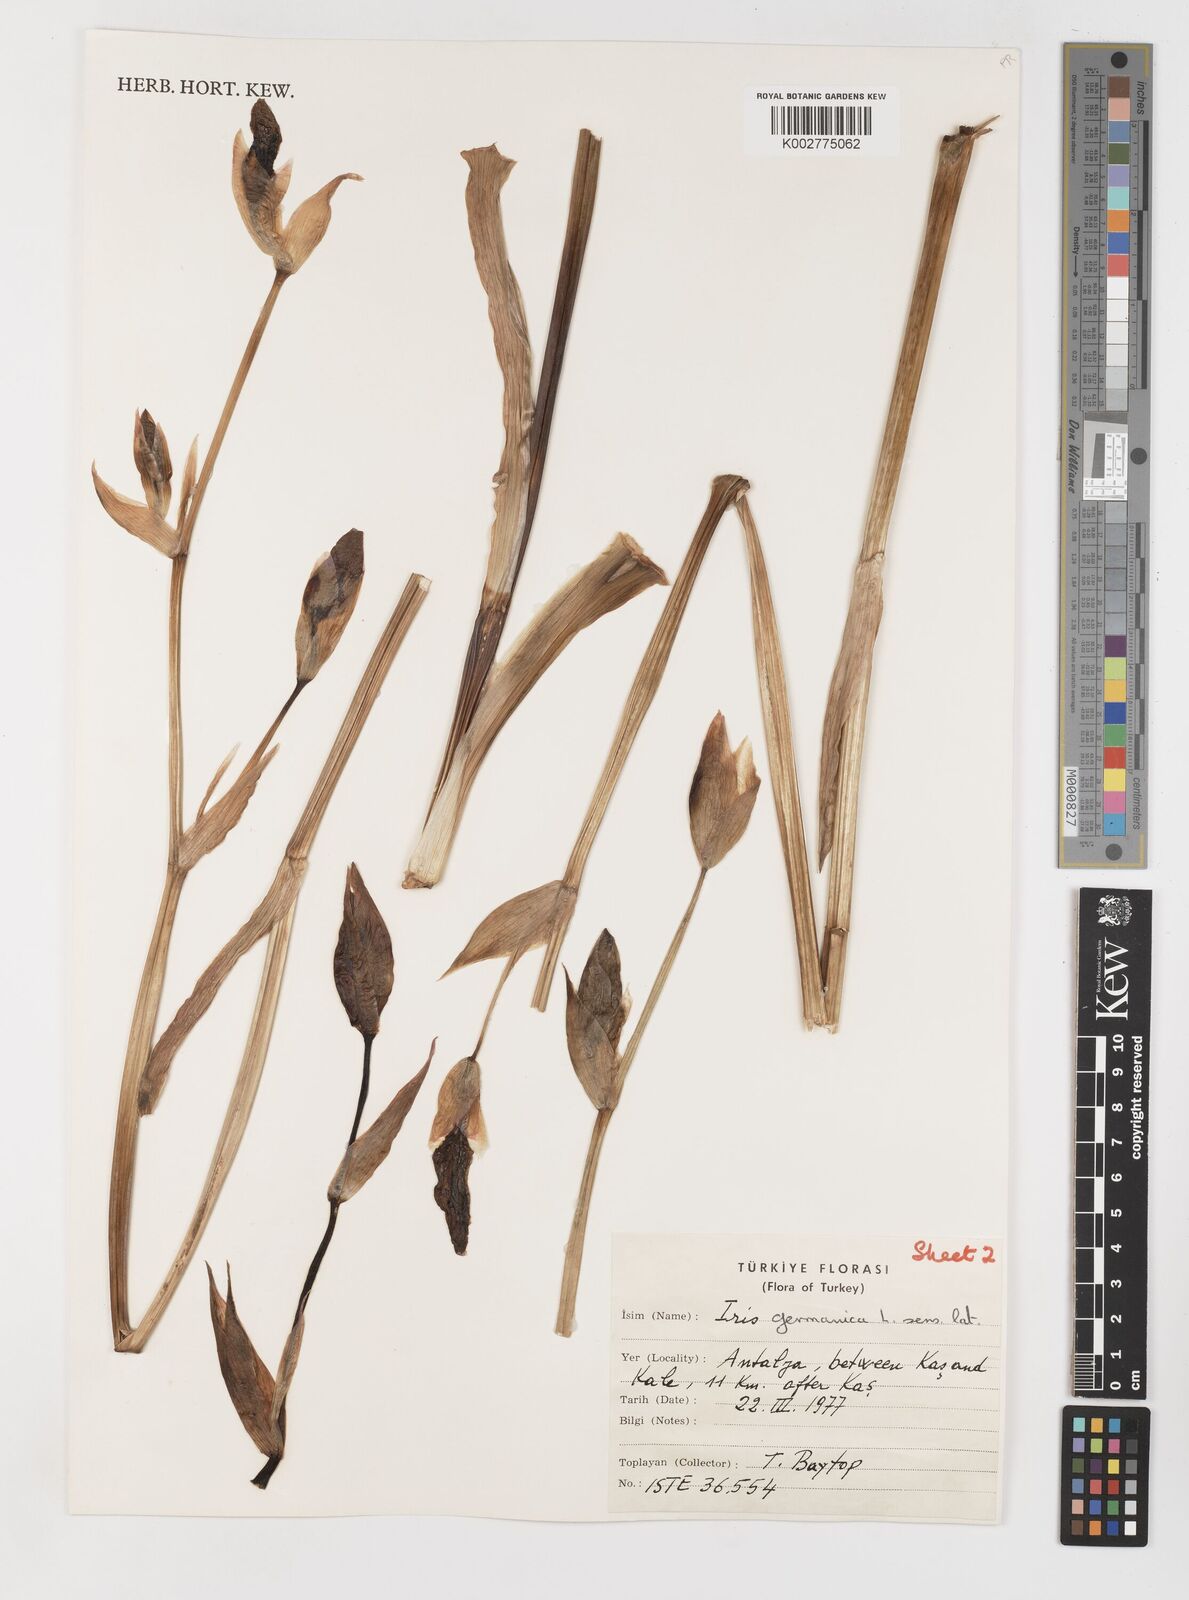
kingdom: Plantae
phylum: Tracheophyta
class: Liliopsida
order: Asparagales
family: Iridaceae
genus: Iris
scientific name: Iris germanica
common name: German iris
